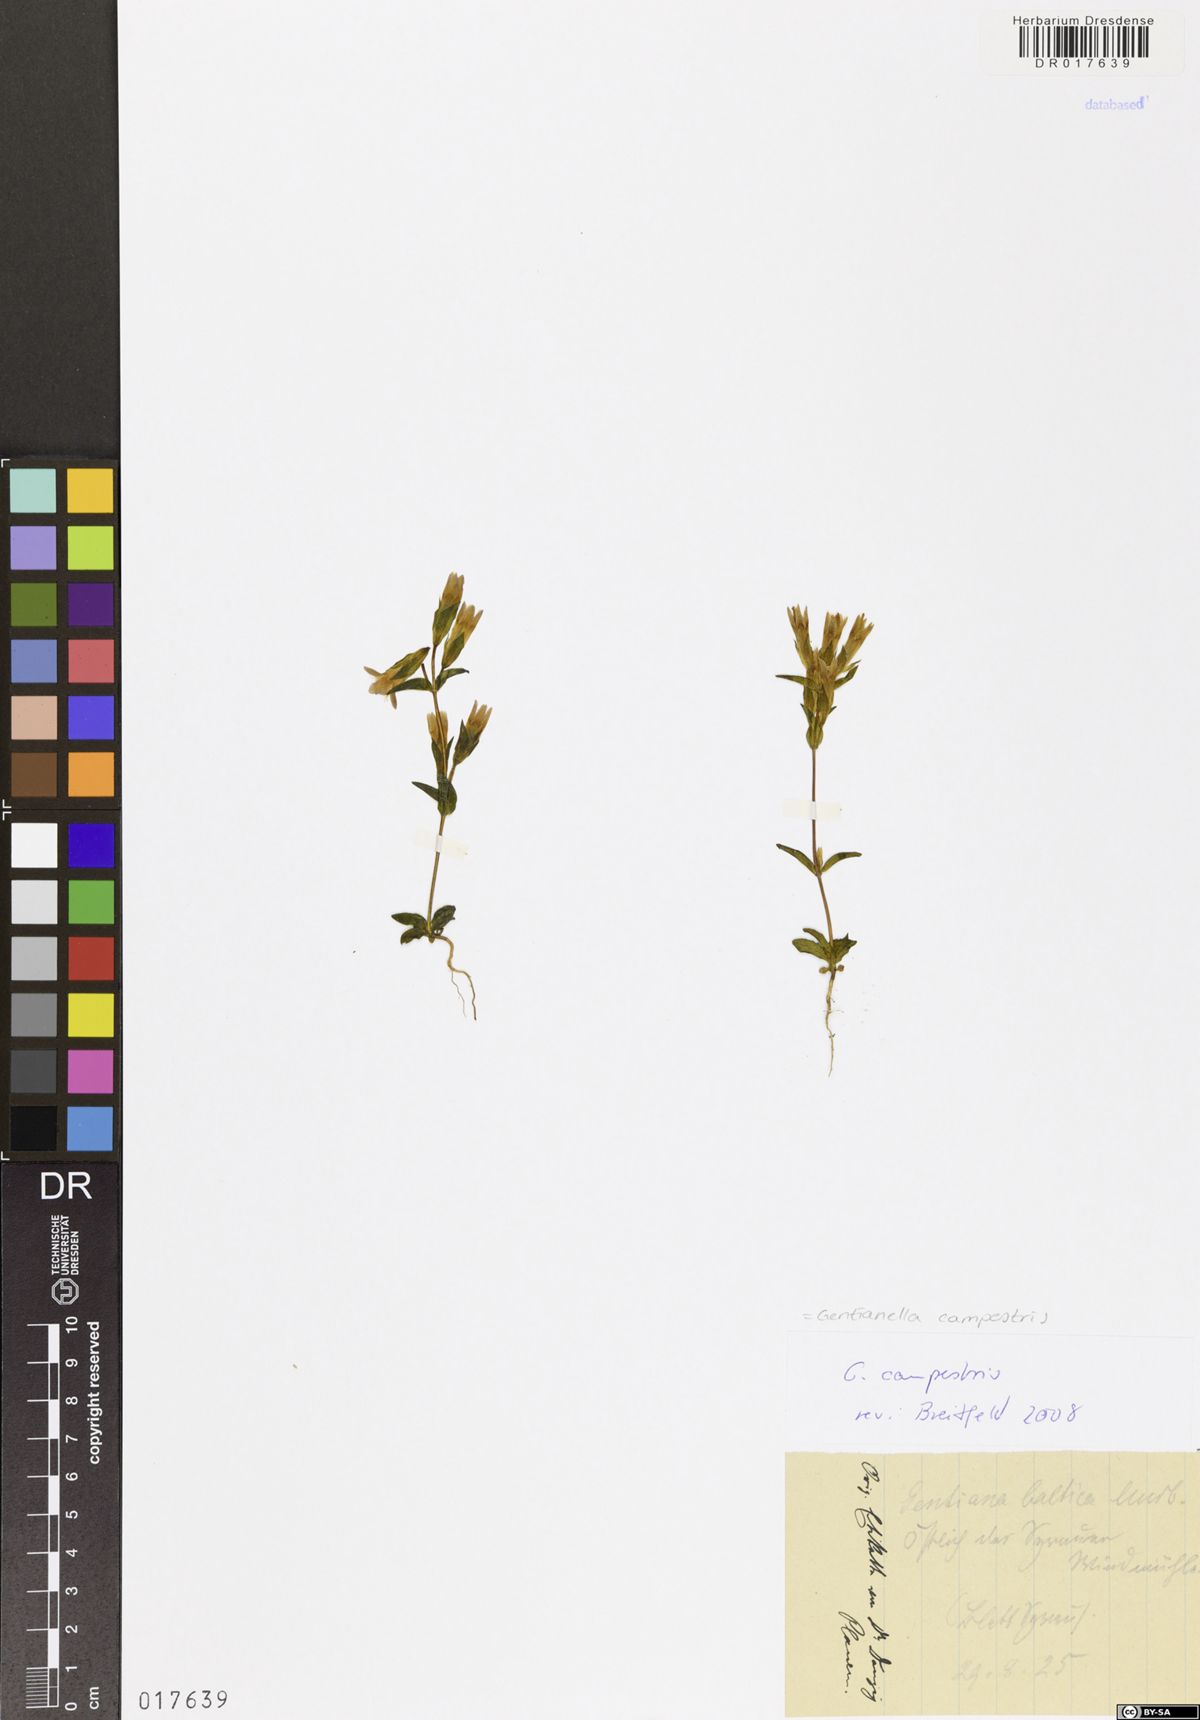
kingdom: Plantae
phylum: Tracheophyta
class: Magnoliopsida
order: Gentianales
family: Gentianaceae
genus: Gentianella
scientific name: Gentianella campestris
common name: Field gentian
